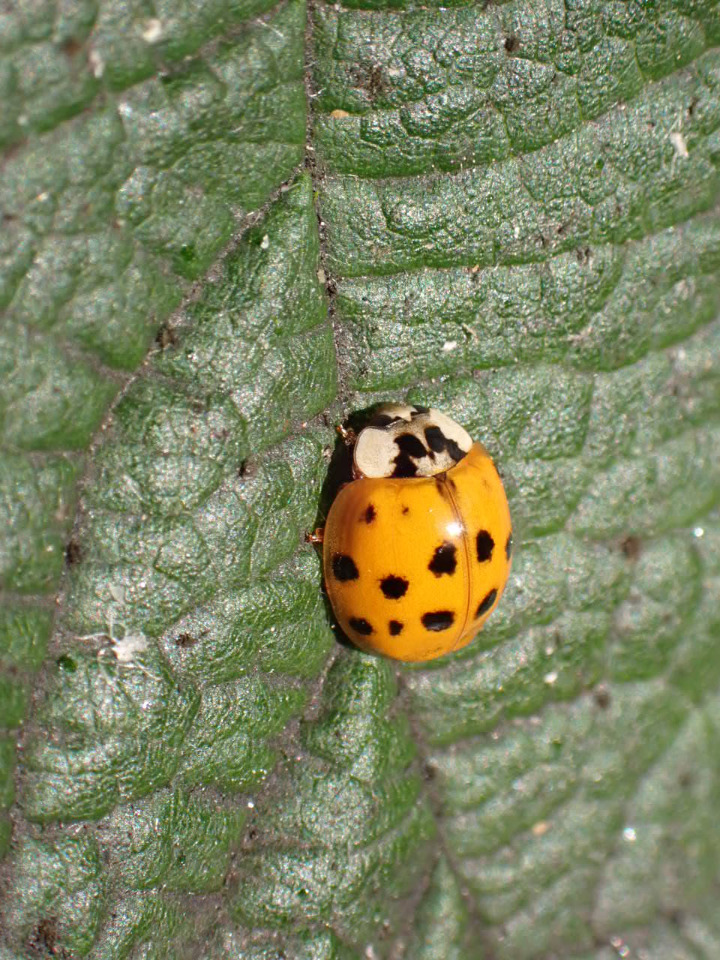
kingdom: Animalia
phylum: Arthropoda
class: Insecta
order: Coleoptera
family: Coccinellidae
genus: Harmonia
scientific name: Harmonia axyridis
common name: Harlekinmariehøne
